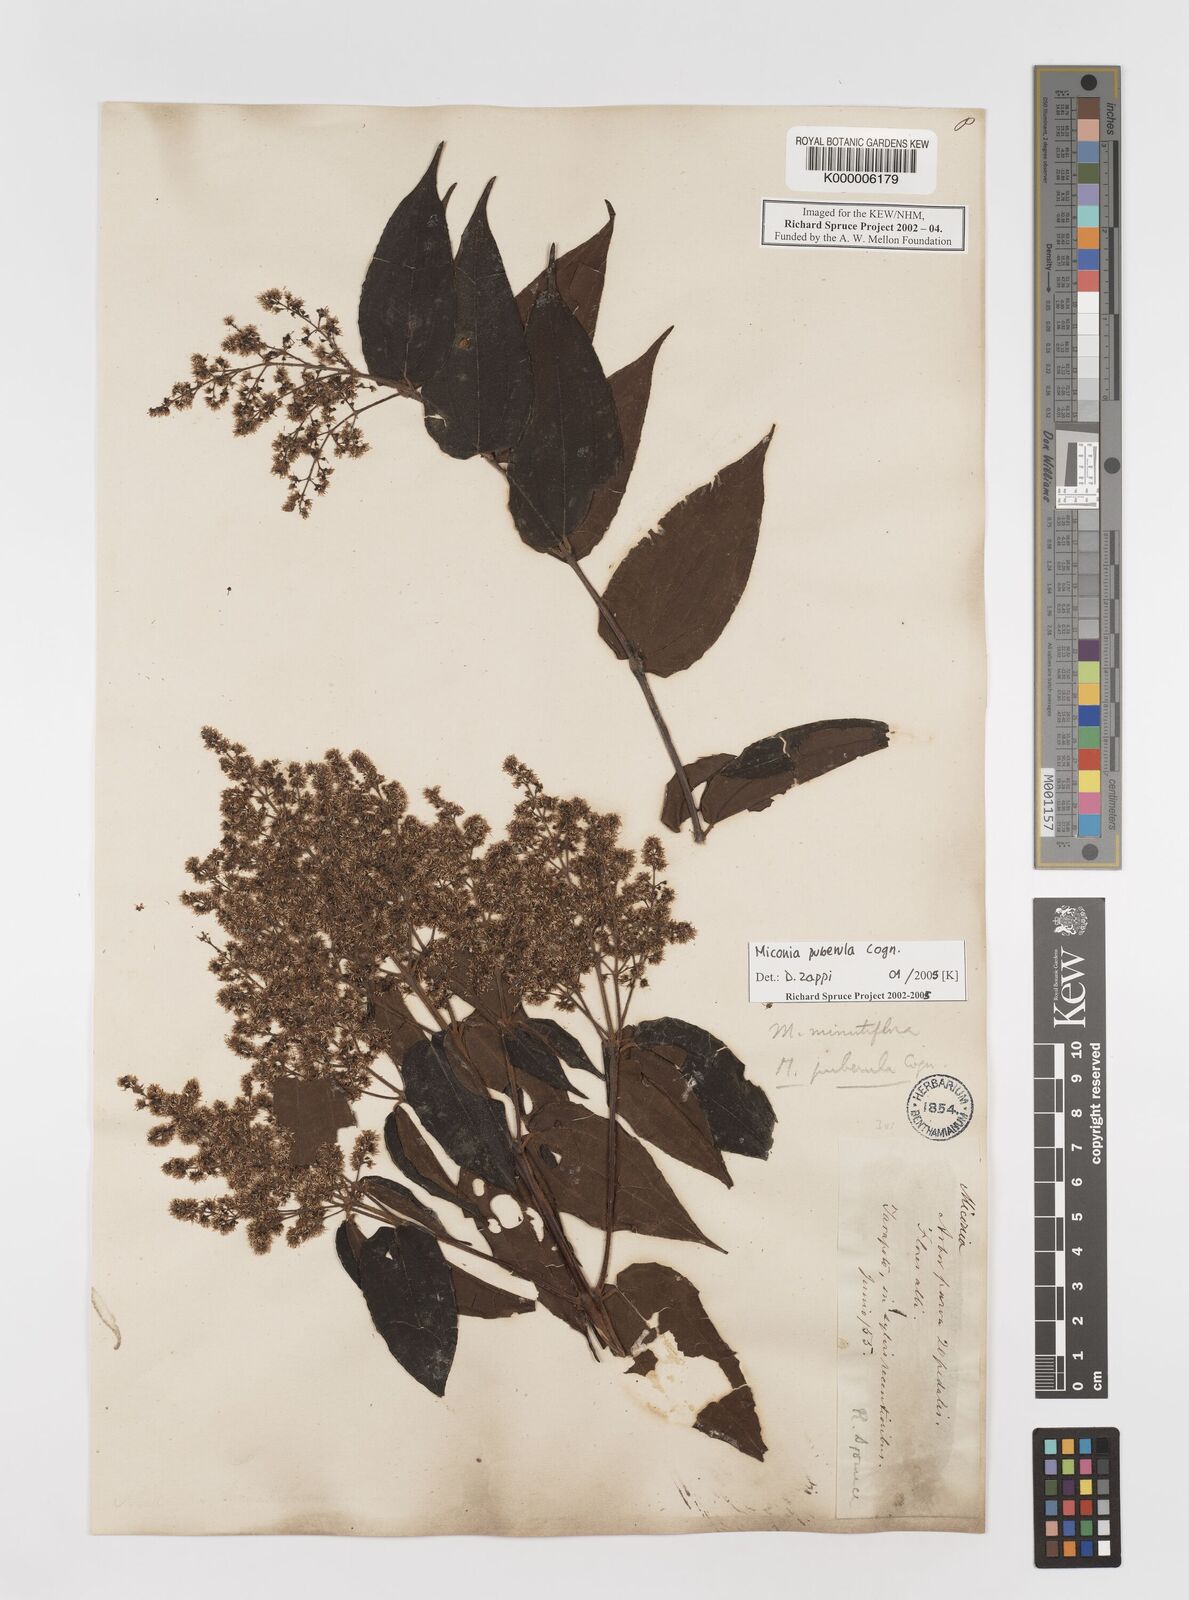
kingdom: Plantae
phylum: Tracheophyta
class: Magnoliopsida
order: Myrtales
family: Melastomataceae
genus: Miconia
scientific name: Miconia puberula
